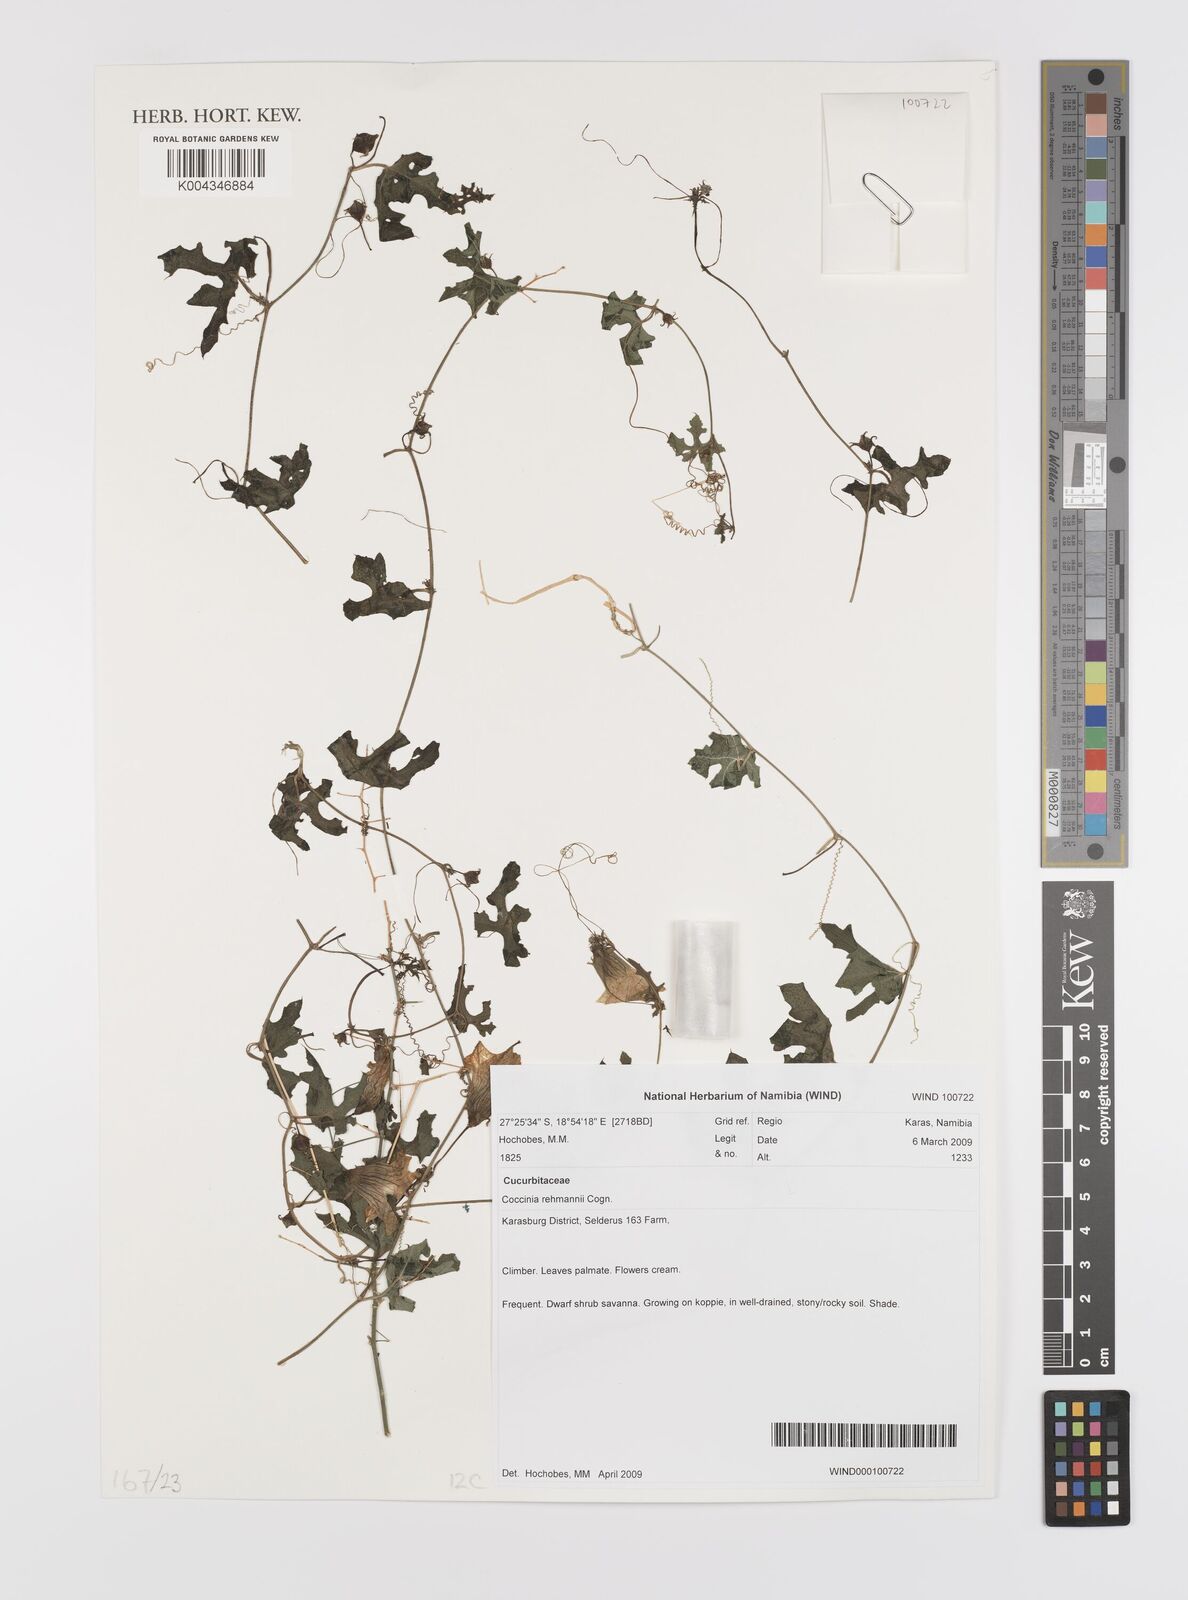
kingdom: Plantae
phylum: Tracheophyta
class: Magnoliopsida
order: Cucurbitales
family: Cucurbitaceae
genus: Coccinia
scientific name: Coccinia rehmannii
